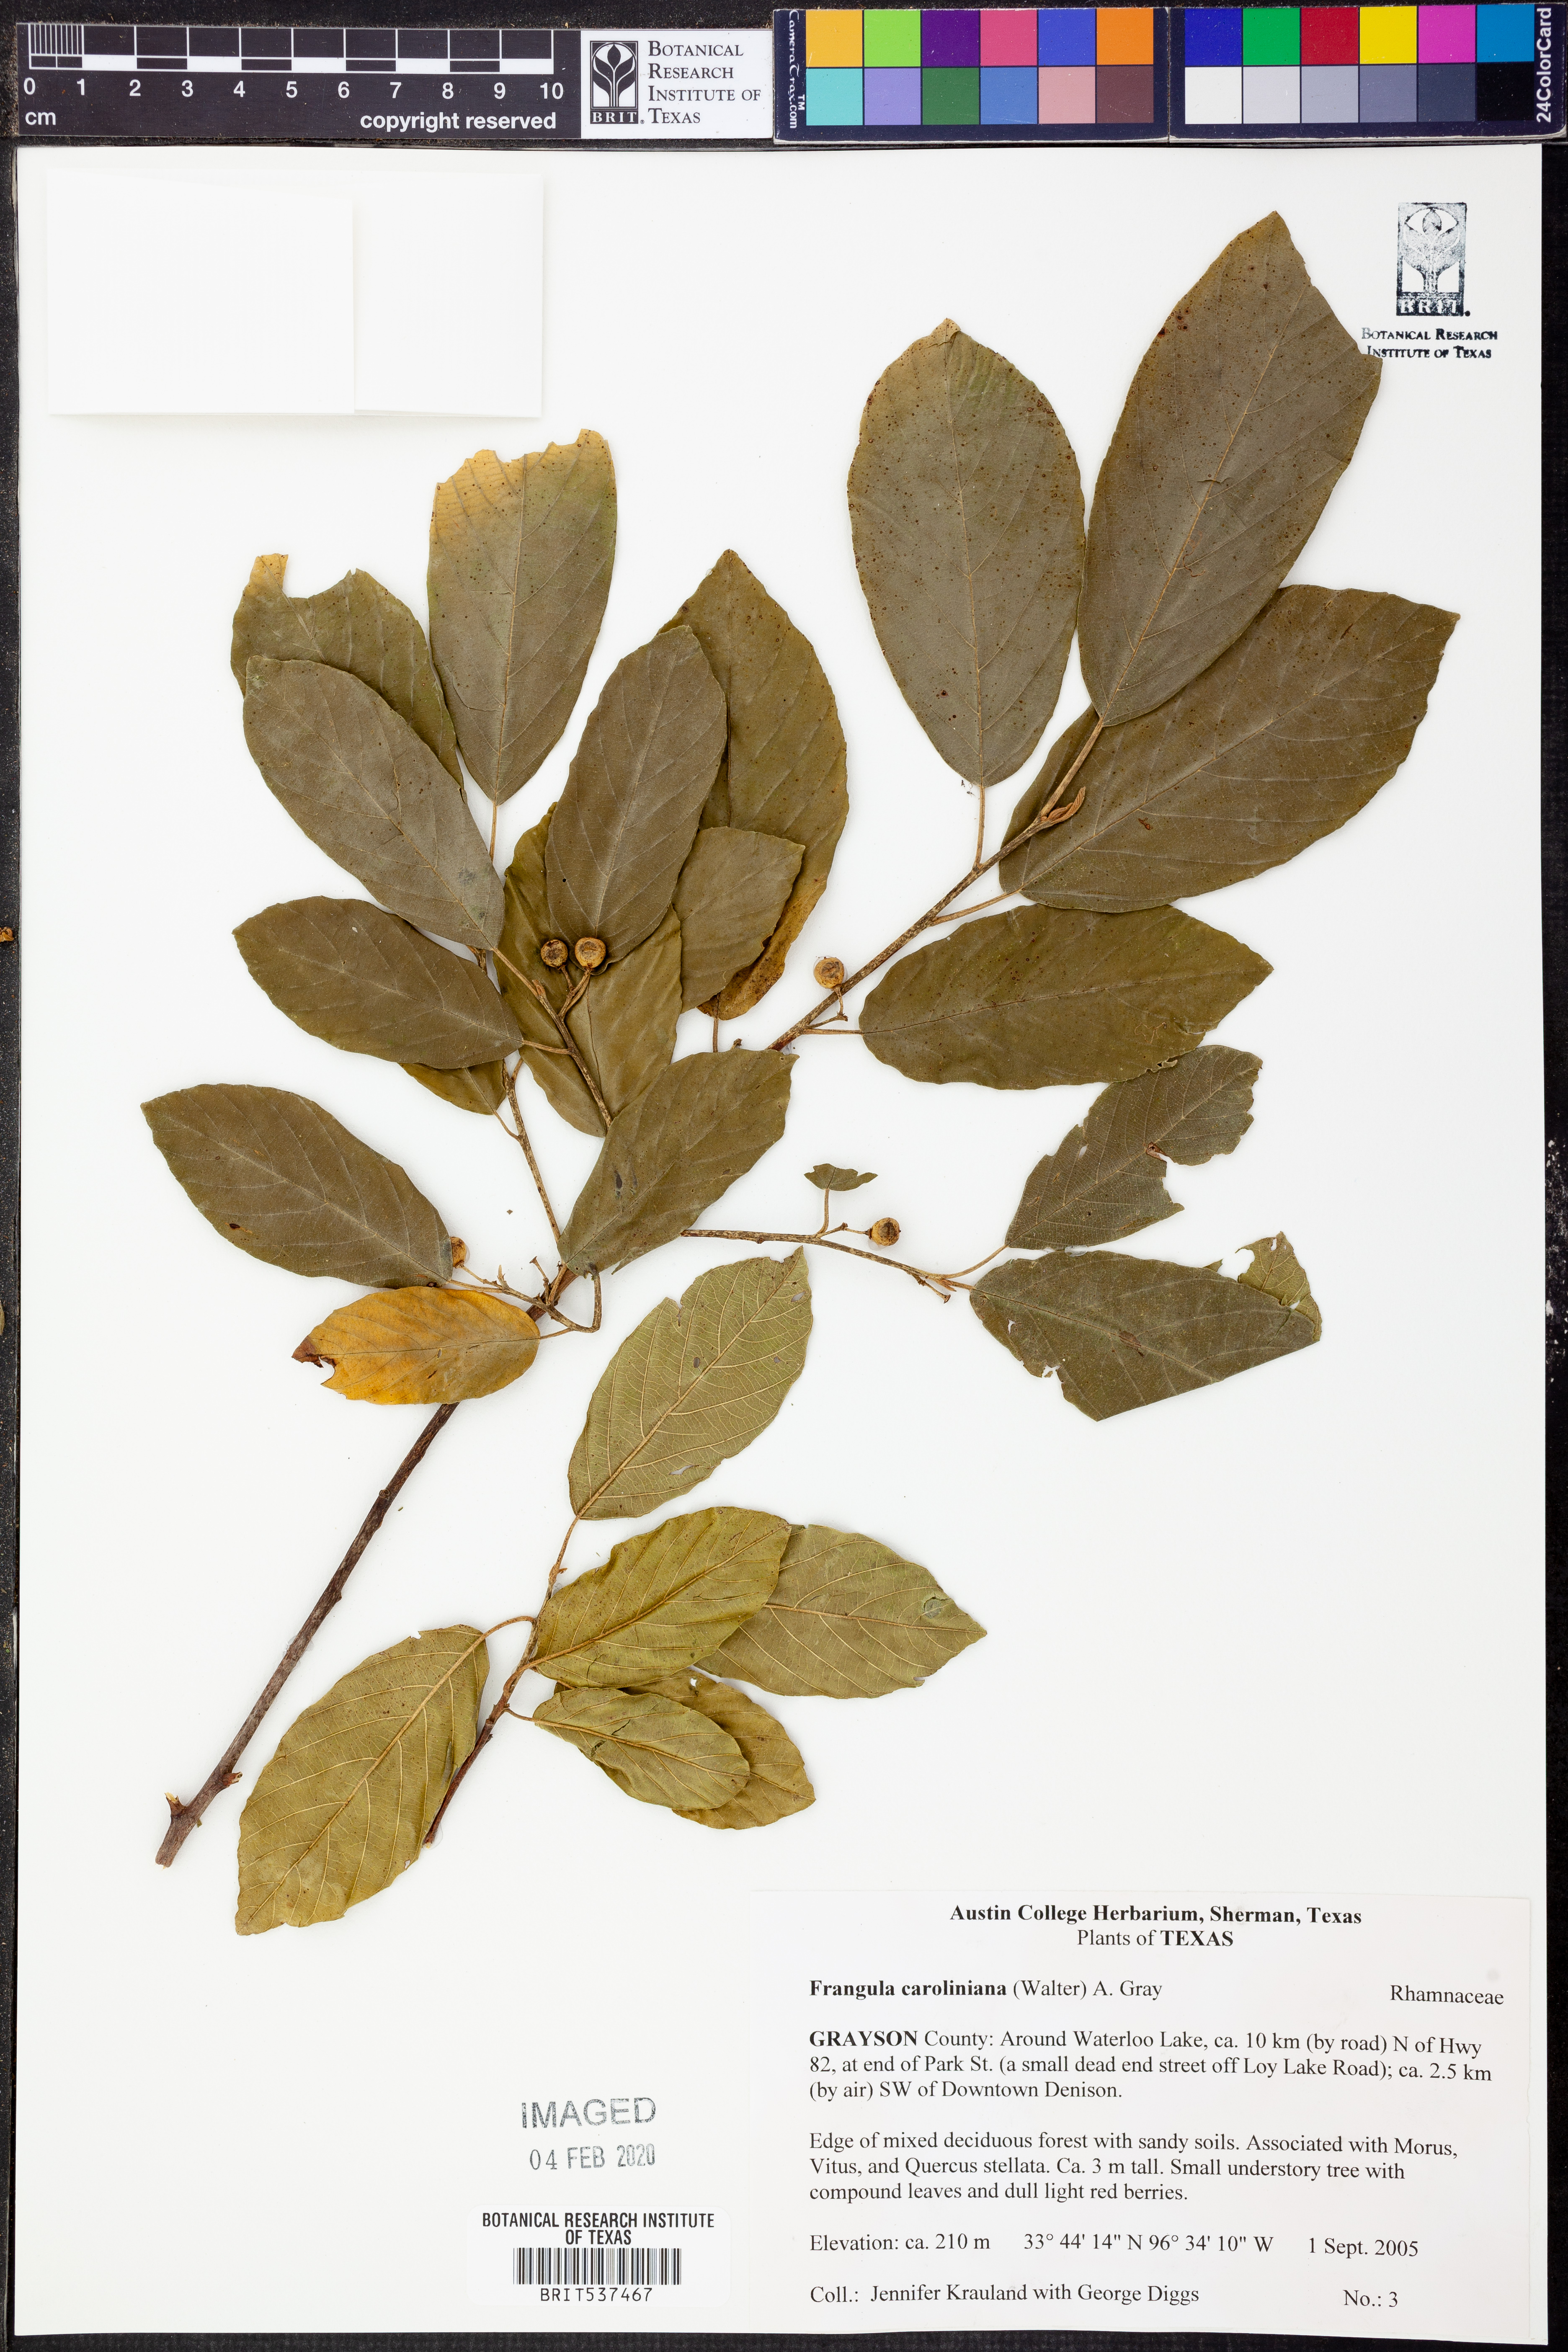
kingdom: Plantae
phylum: Tracheophyta
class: Magnoliopsida
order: Rosales
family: Rhamnaceae
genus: Frangula
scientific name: Frangula caroliniana
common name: Carolina buckthorn
